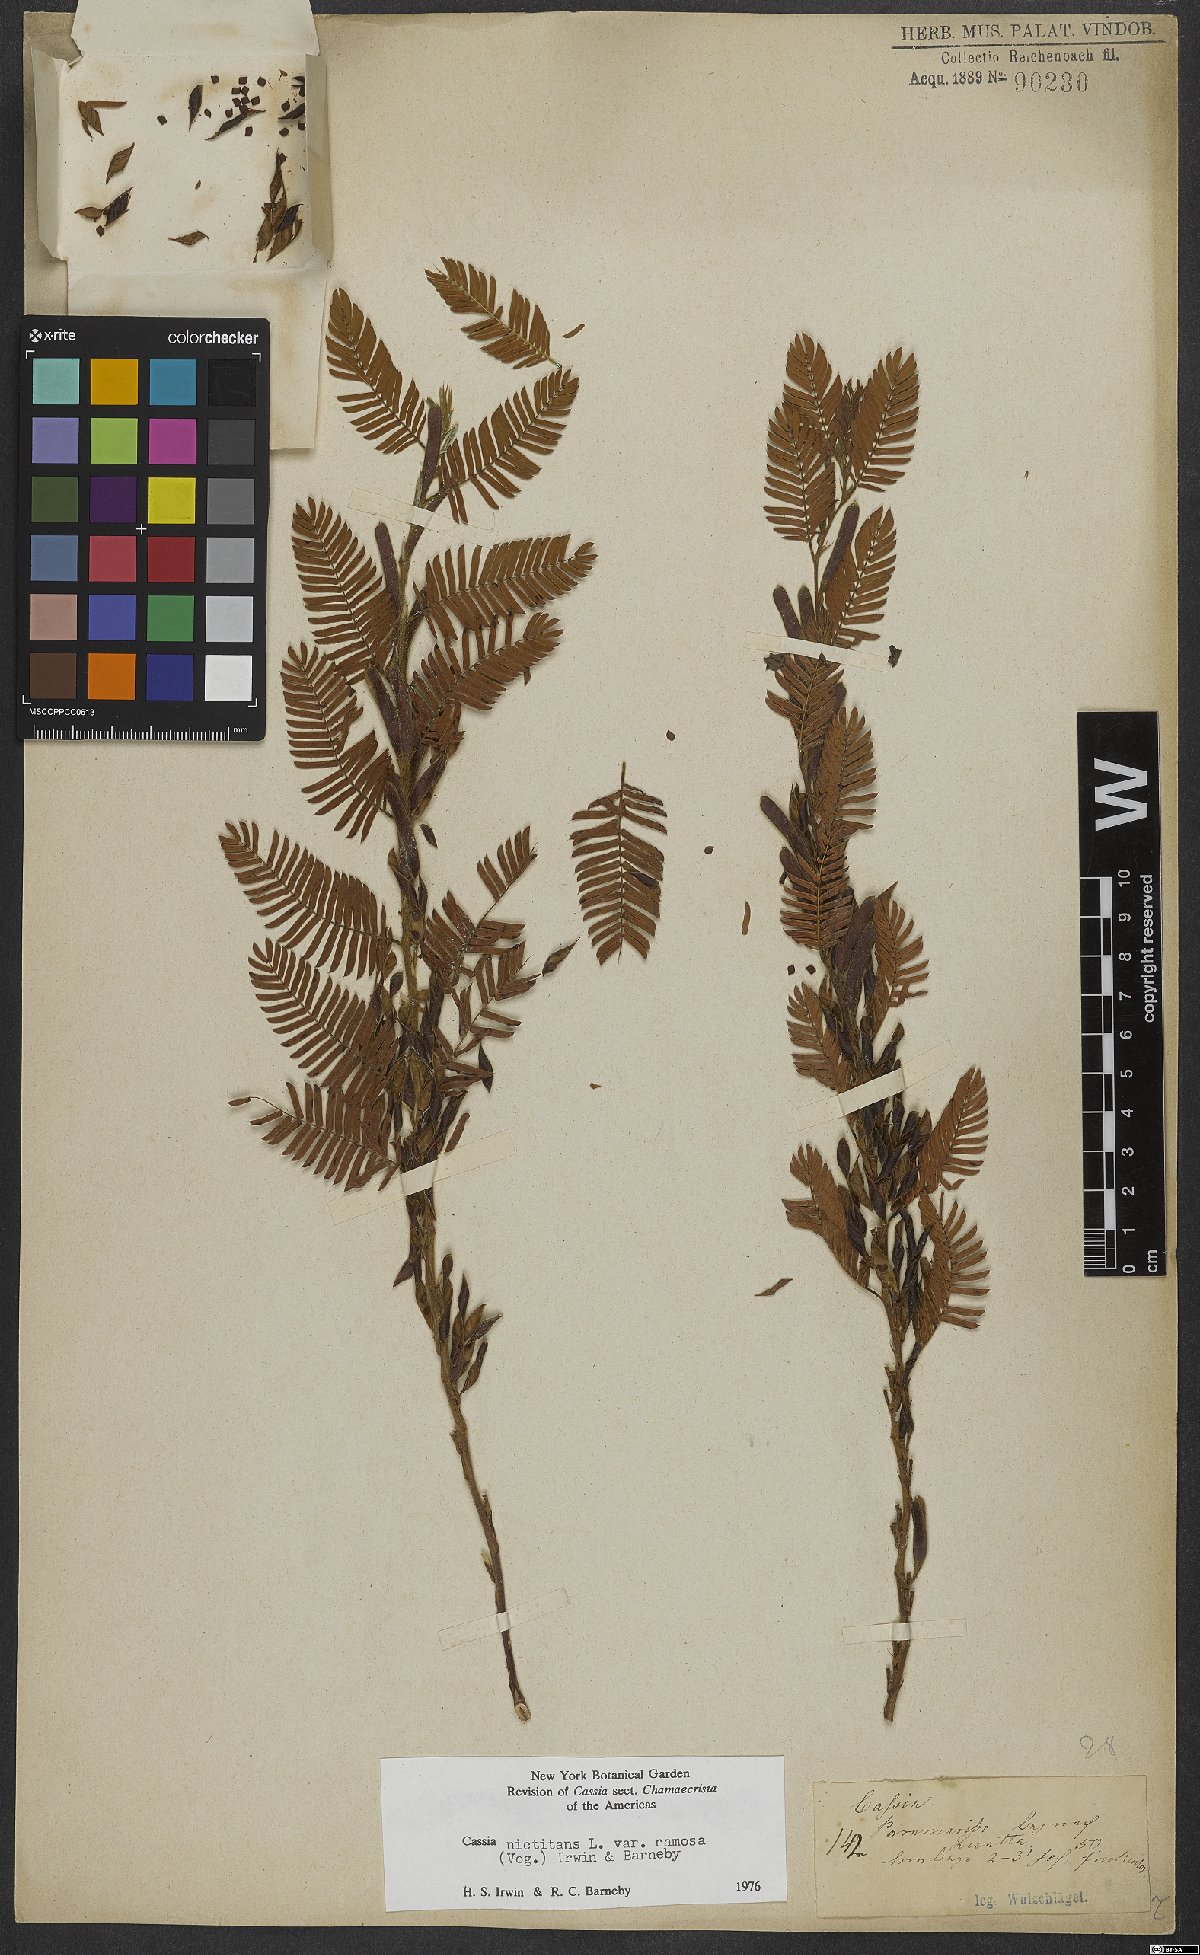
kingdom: Plantae
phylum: Tracheophyta
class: Magnoliopsida
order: Fabales
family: Fabaceae
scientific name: Fabaceae
